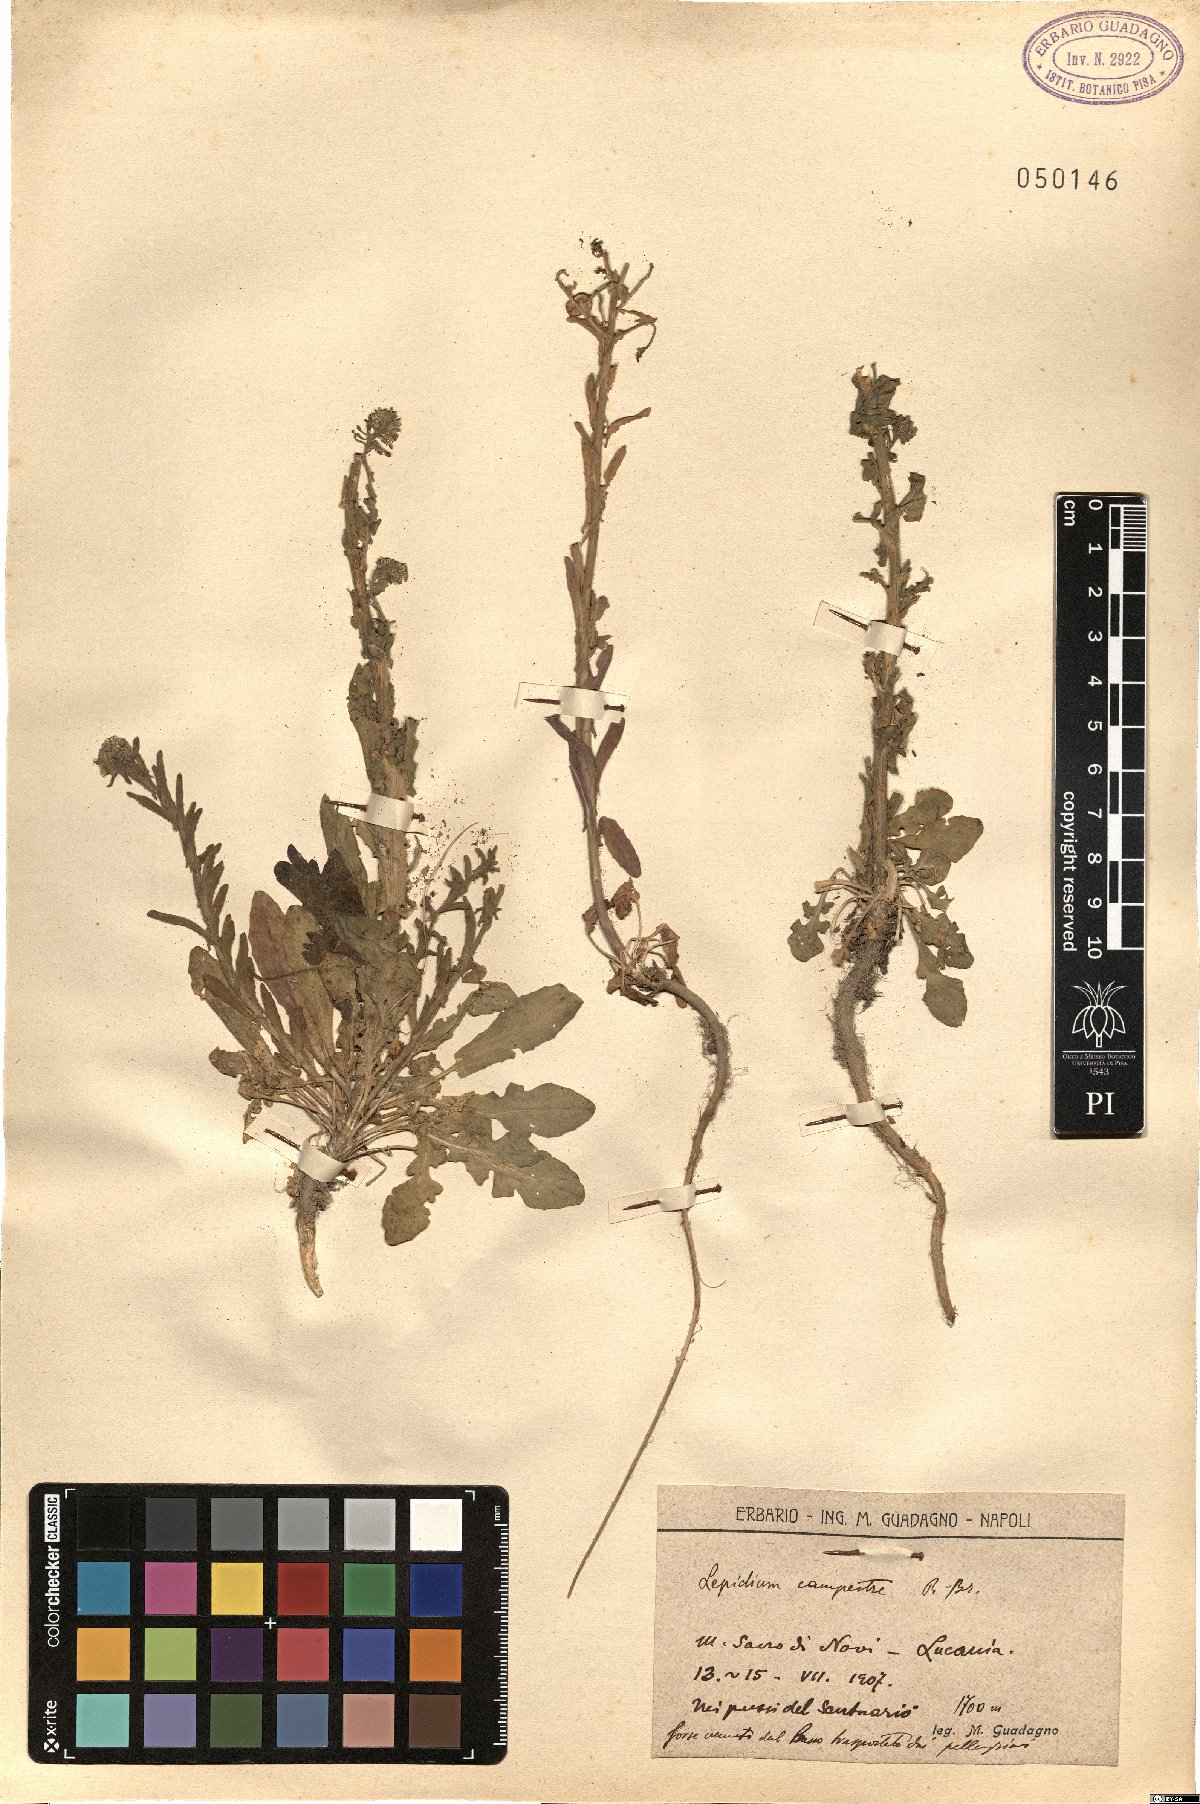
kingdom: Plantae
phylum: Tracheophyta
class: Magnoliopsida
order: Brassicales
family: Brassicaceae
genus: Lepidium
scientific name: Lepidium campestre
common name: Field pepperwort
